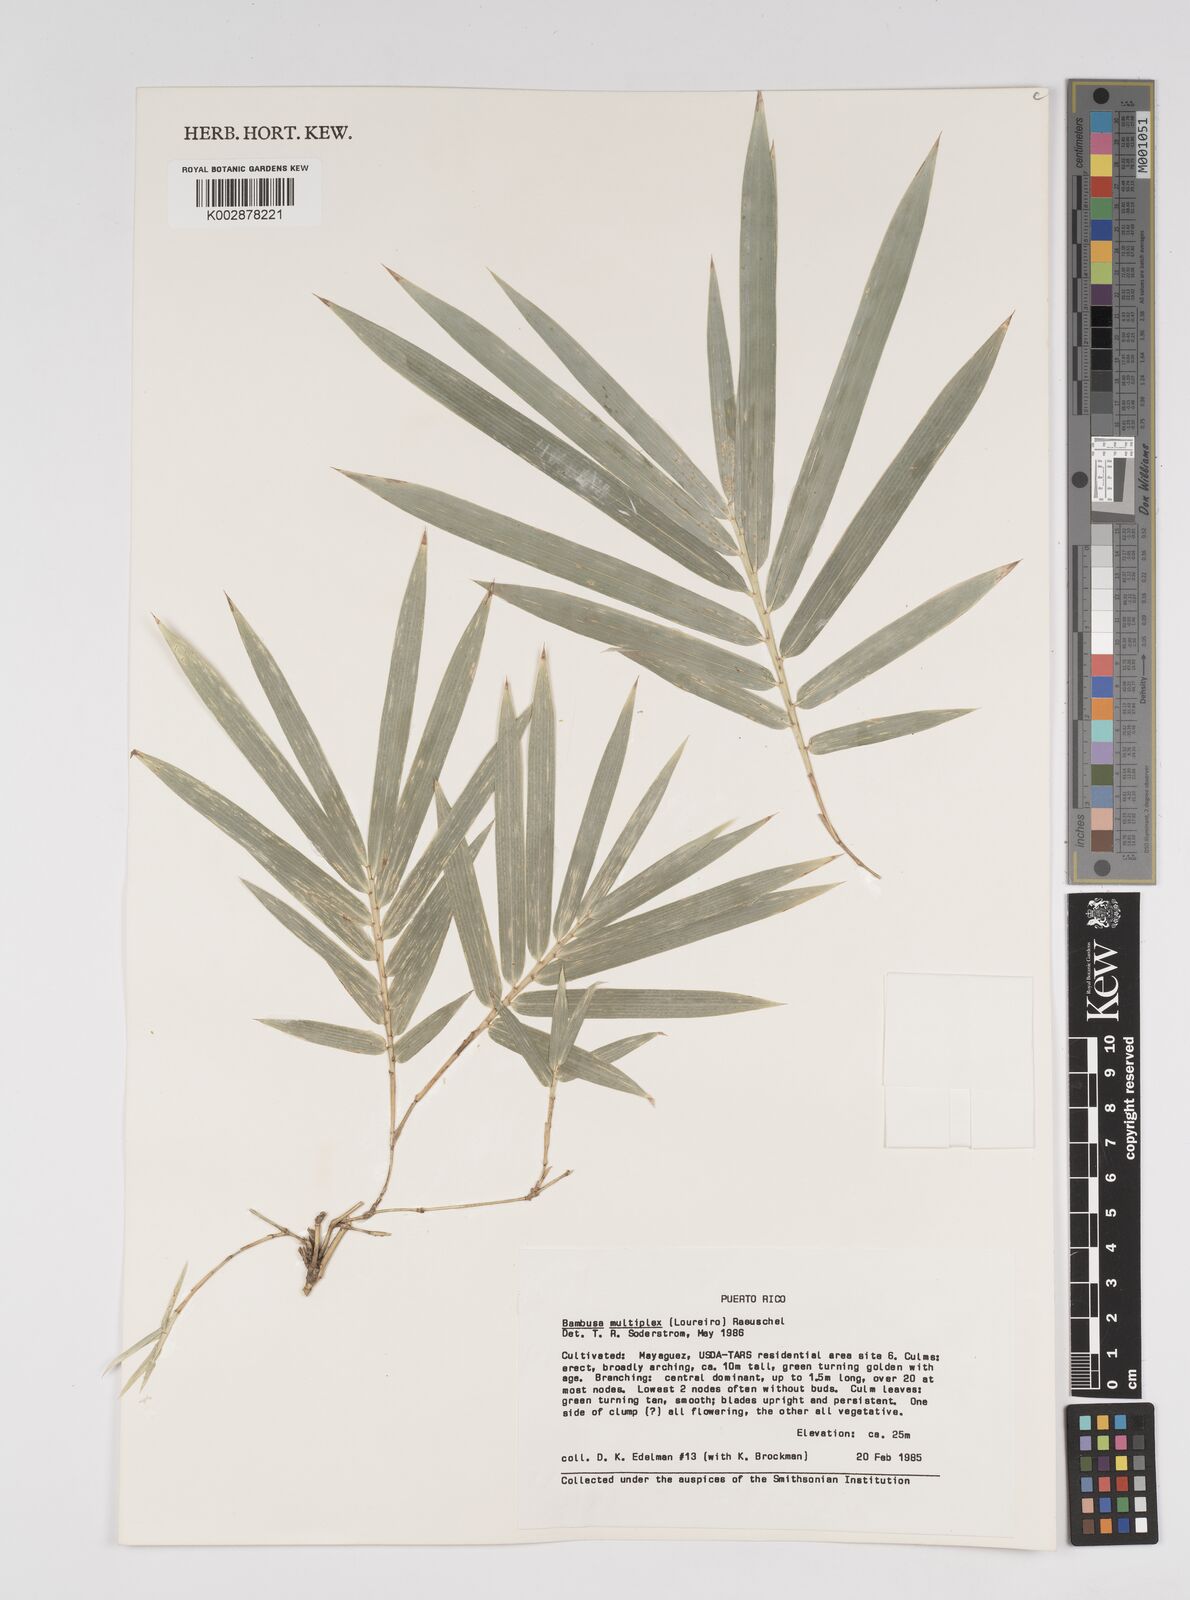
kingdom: Plantae
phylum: Tracheophyta
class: Liliopsida
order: Poales
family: Poaceae
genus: Bambusa
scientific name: Bambusa multiplex
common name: Hedge bamboo
